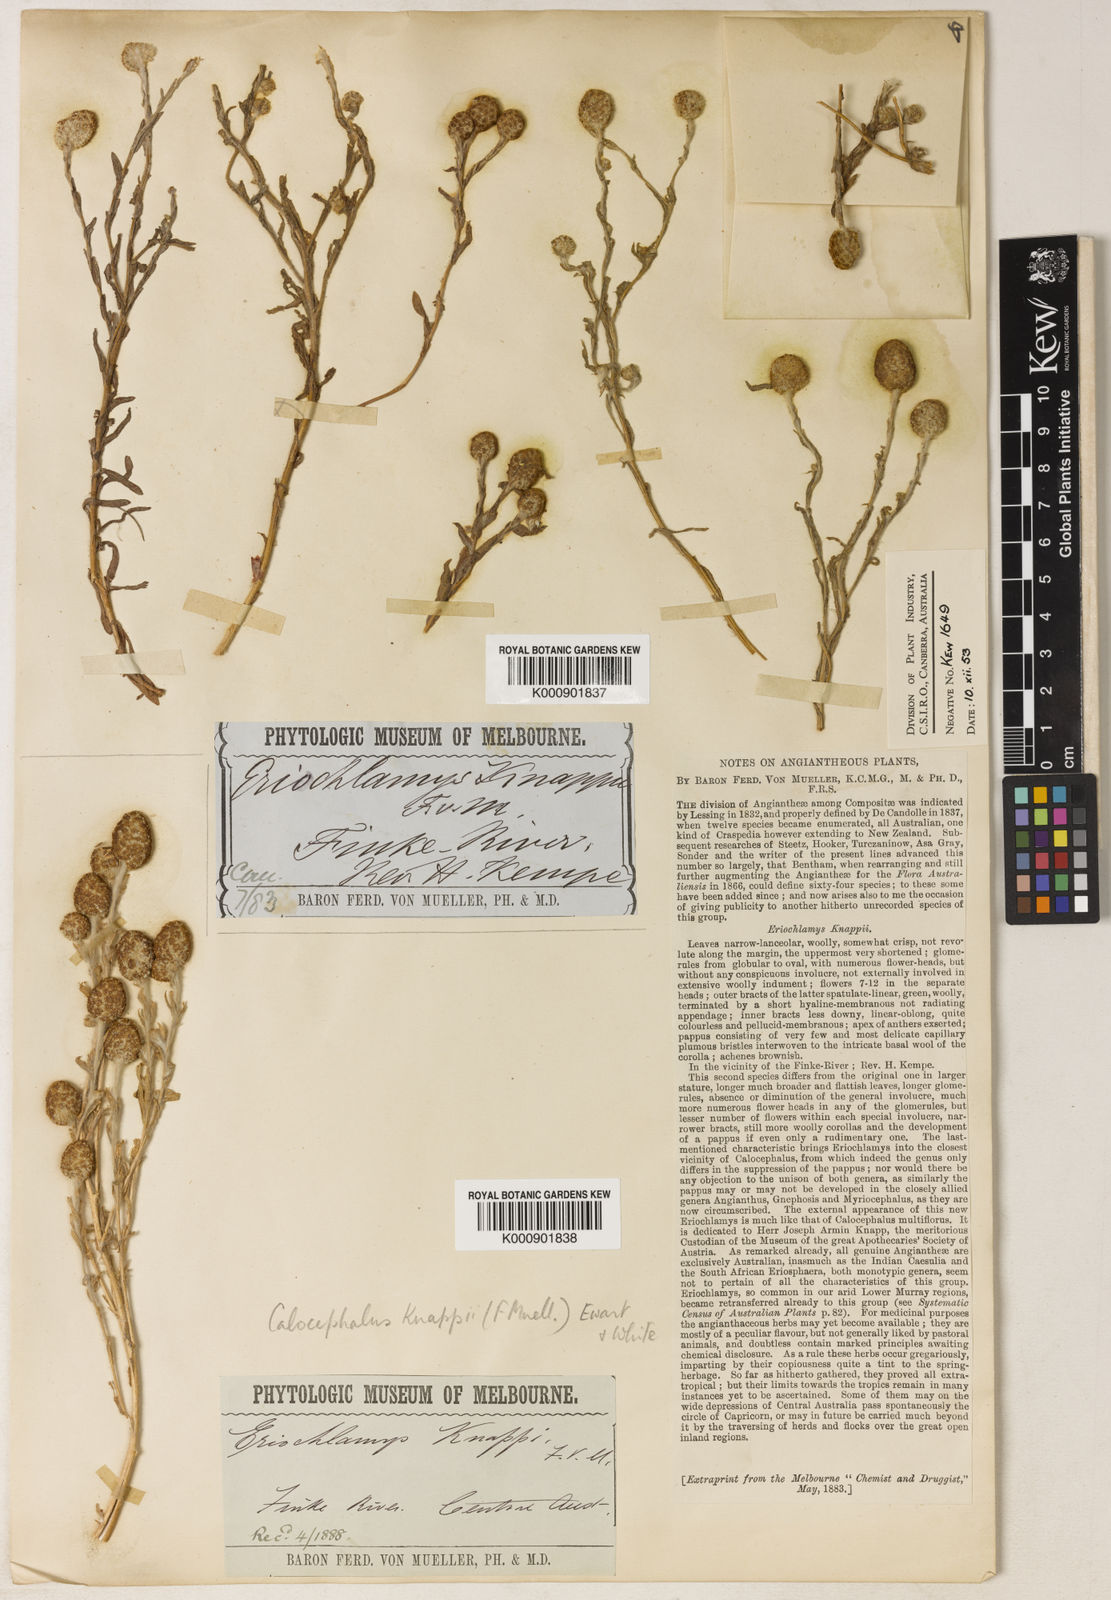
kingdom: Plantae
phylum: Tracheophyta
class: Magnoliopsida
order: Asterales
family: Asteraceae
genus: Calocephalus
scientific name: Calocephalus knappii
